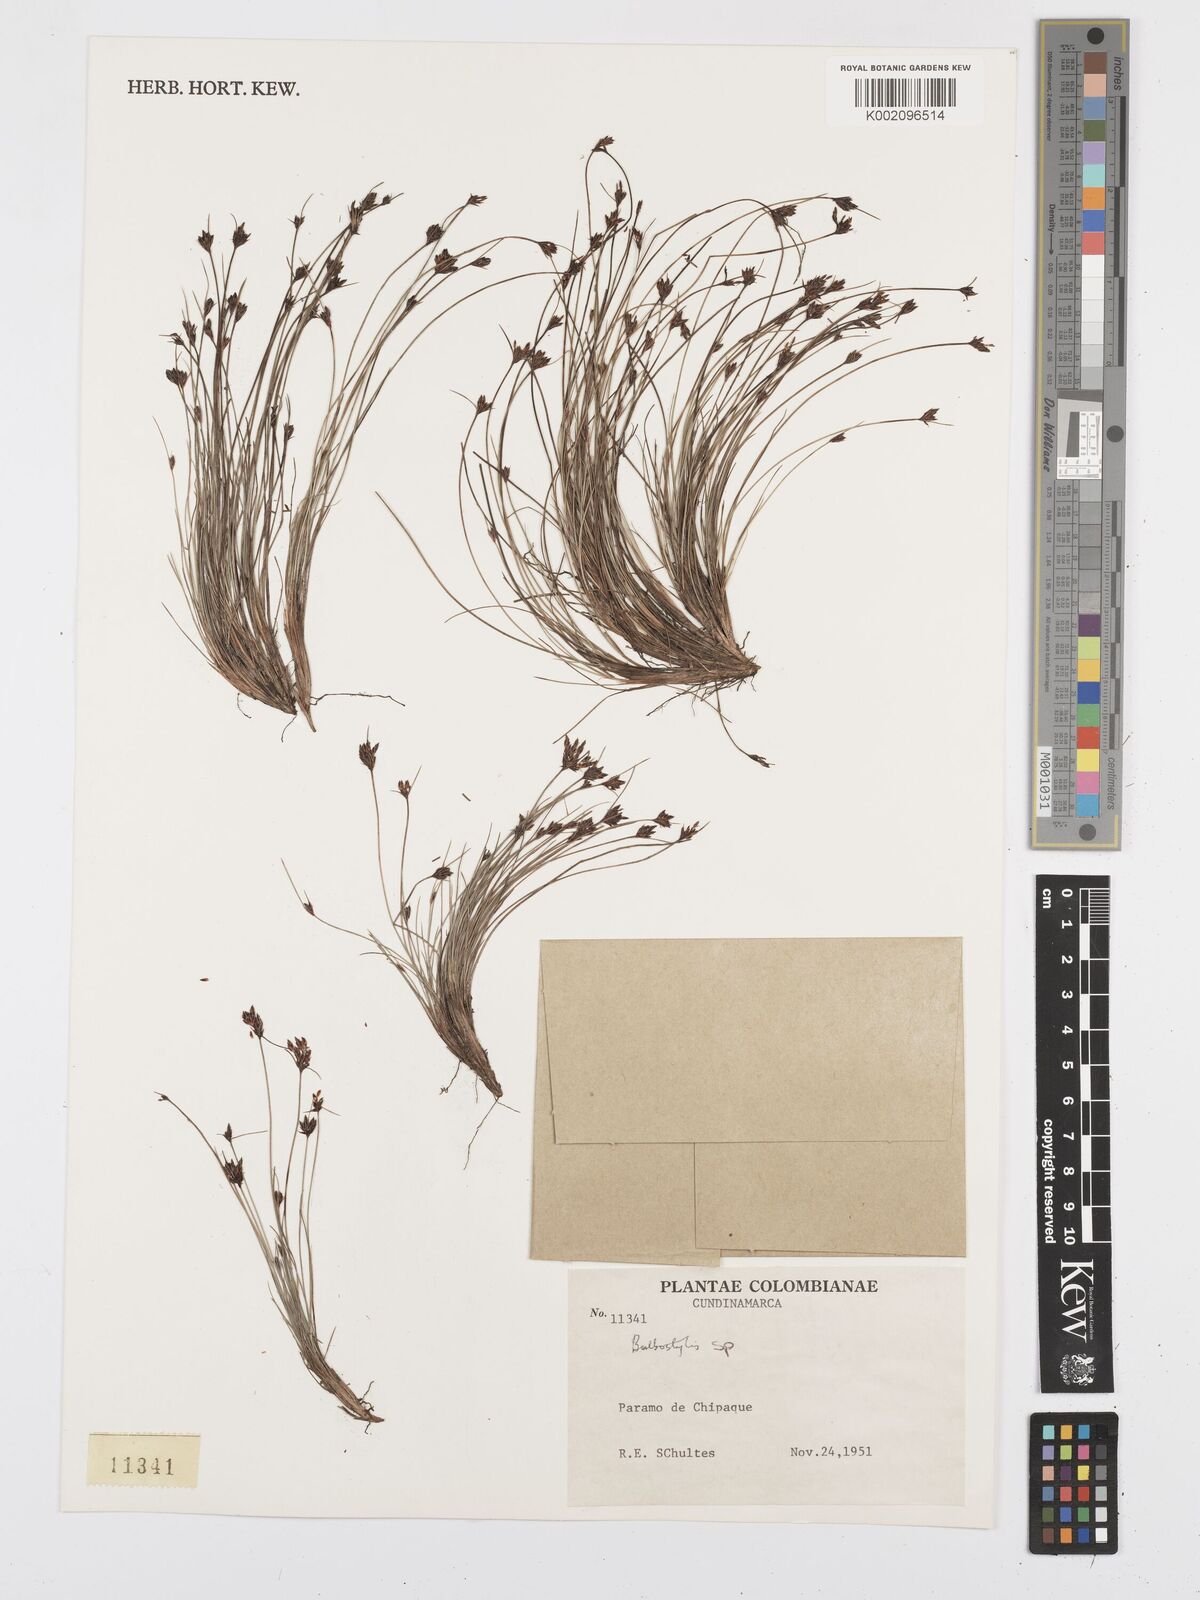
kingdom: Plantae
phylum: Tracheophyta
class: Liliopsida
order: Poales
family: Cyperaceae
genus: Bulbostylis
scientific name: Bulbostylis
